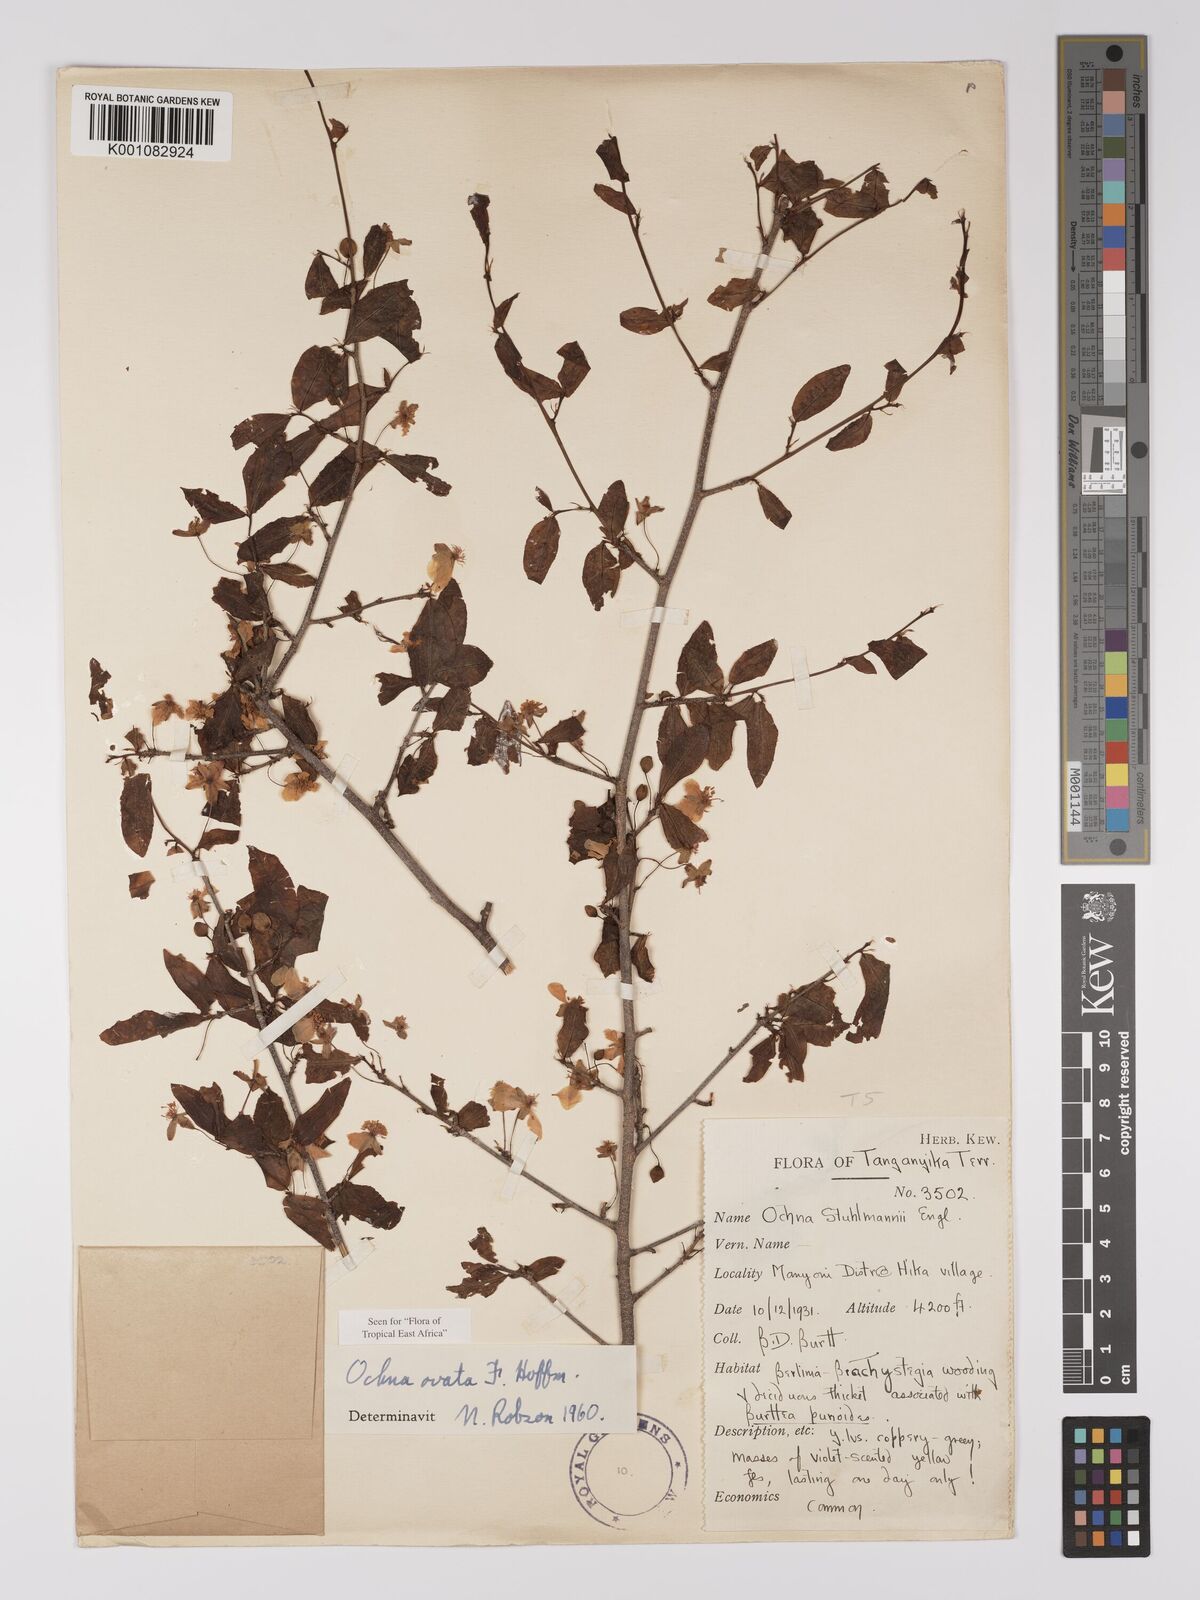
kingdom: Plantae
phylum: Tracheophyta
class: Magnoliopsida
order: Malpighiales
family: Ochnaceae
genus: Ochna
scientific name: Ochna ovata
